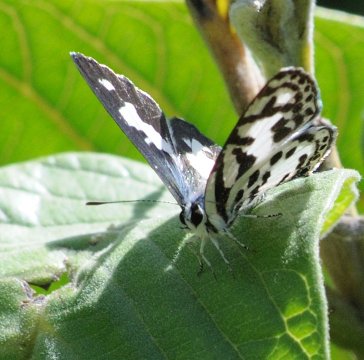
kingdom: Animalia
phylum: Arthropoda
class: Insecta
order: Lepidoptera
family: Lycaenidae
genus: Castalius
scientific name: Castalius calice
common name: White Pie
